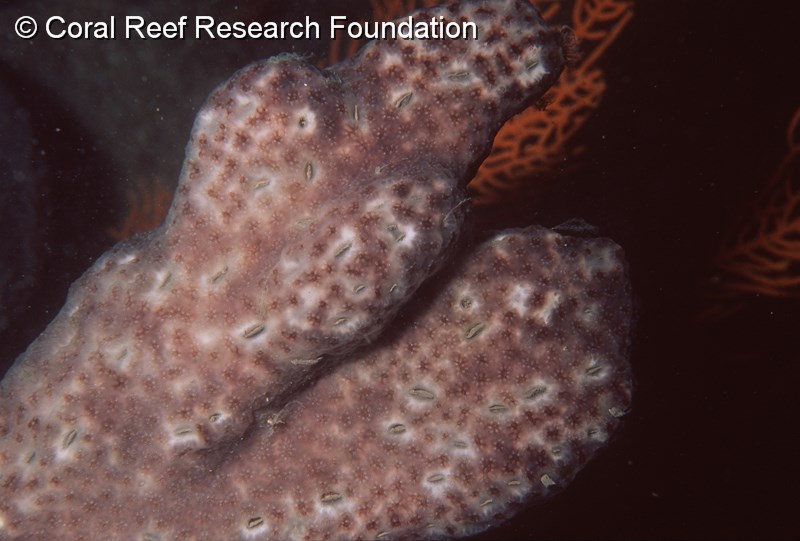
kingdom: Animalia
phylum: Chordata
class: Ascidiacea
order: Aplousobranchia
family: Holozoidae
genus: Distaplia
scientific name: Distaplia skoogi
